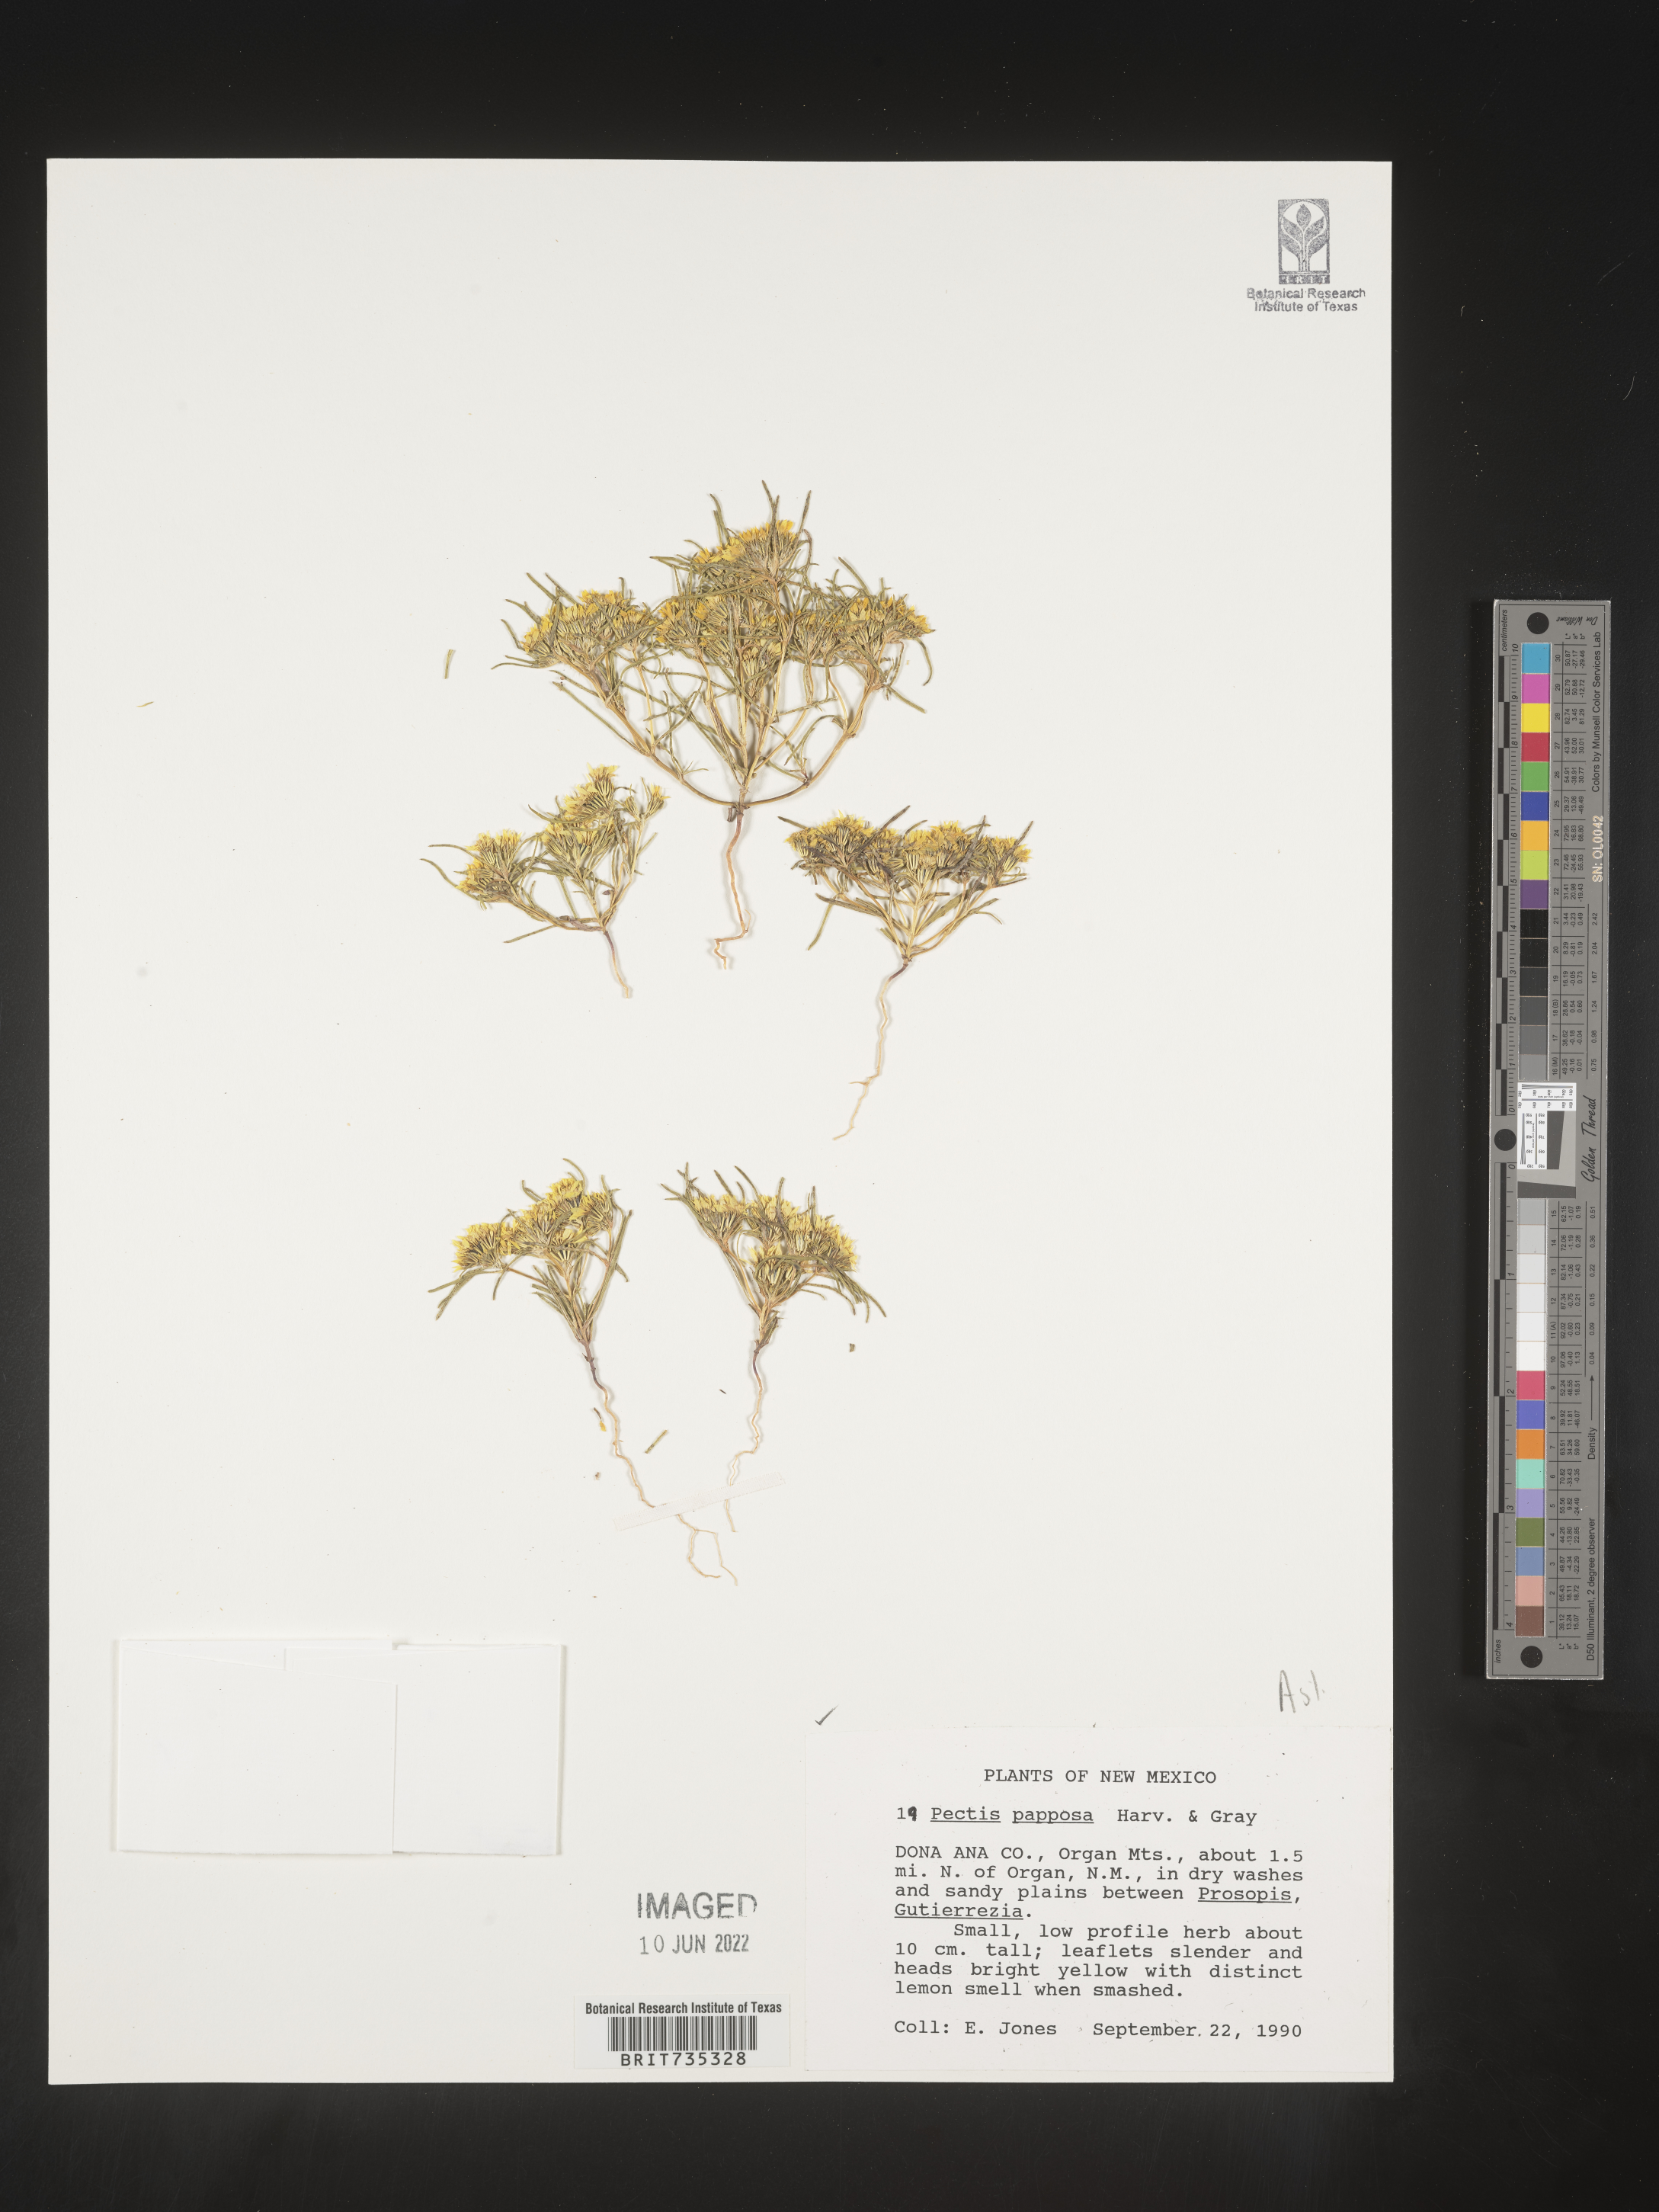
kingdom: Plantae
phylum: Tracheophyta
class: Magnoliopsida
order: Asterales
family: Asteraceae
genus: Pectis
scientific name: Pectis papposa
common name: Many-bristle chinchweed
